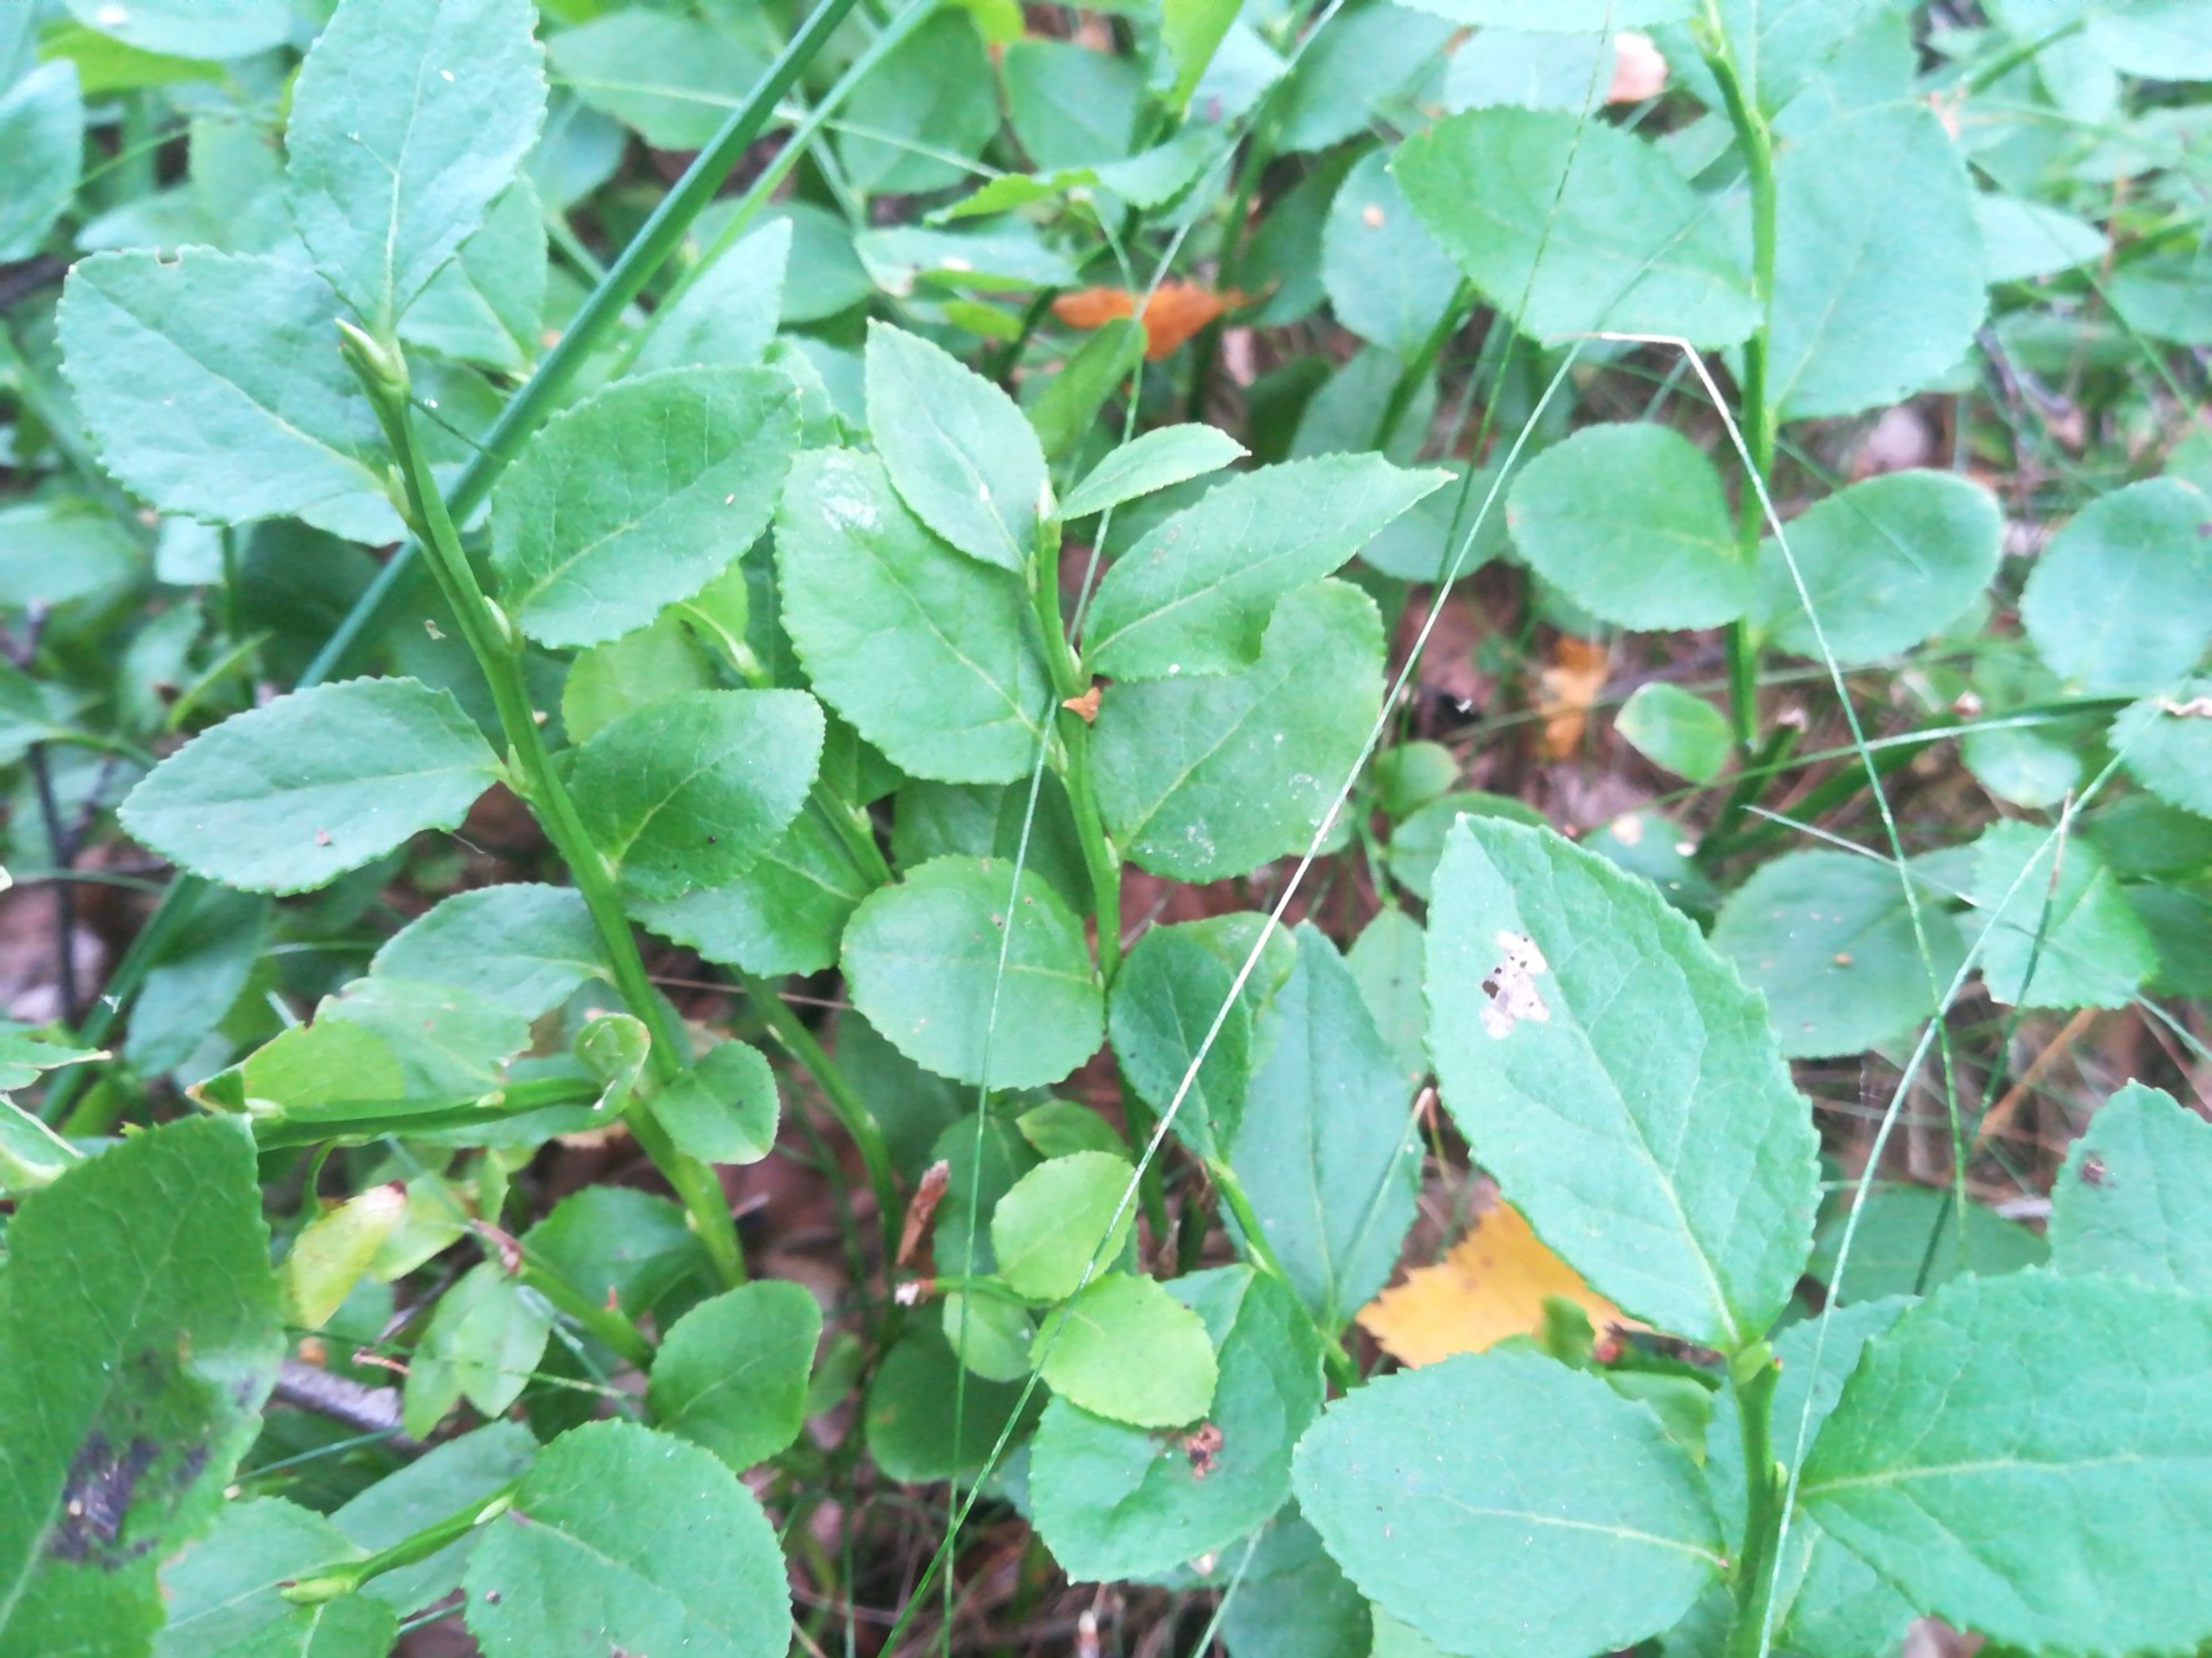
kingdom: Plantae
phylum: Tracheophyta
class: Magnoliopsida
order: Ericales
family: Ericaceae
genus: Vaccinium
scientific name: Vaccinium myrtillus
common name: Blåbær
